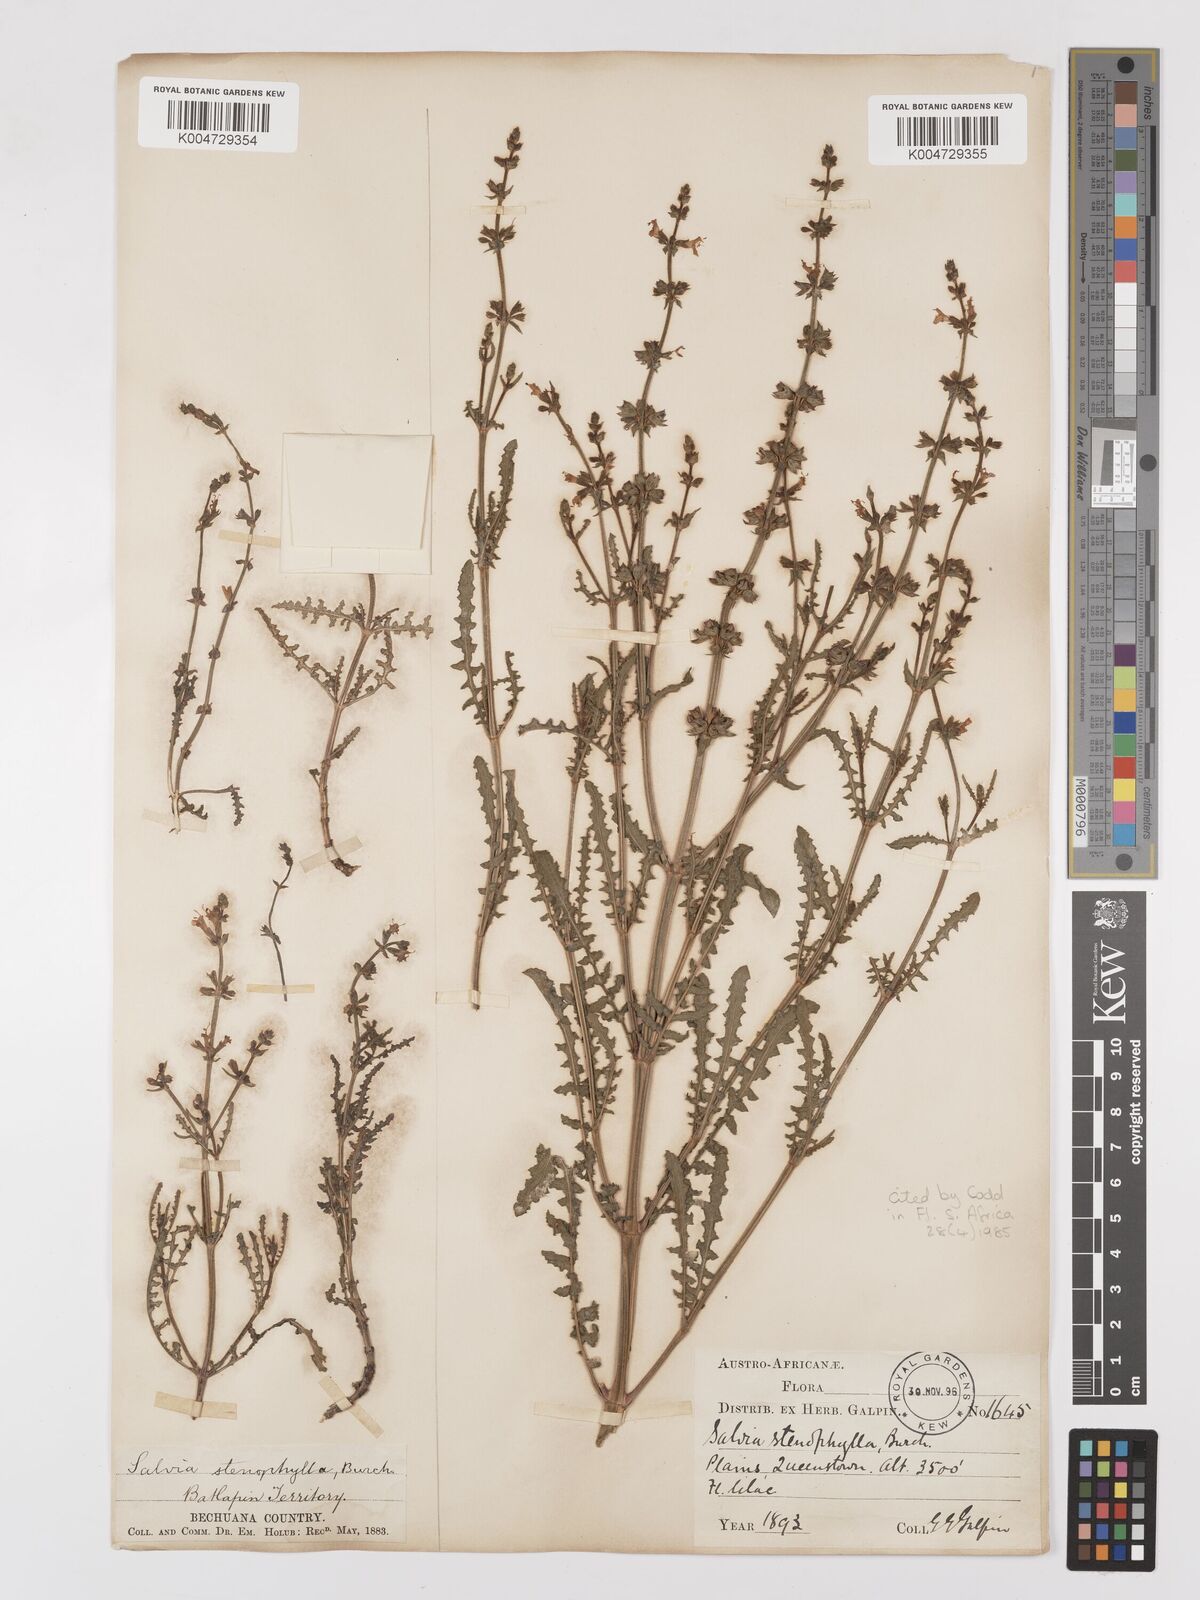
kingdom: Plantae
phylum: Tracheophyta
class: Magnoliopsida
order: Lamiales
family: Lamiaceae
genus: Salvia
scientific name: Salvia stenophylla
